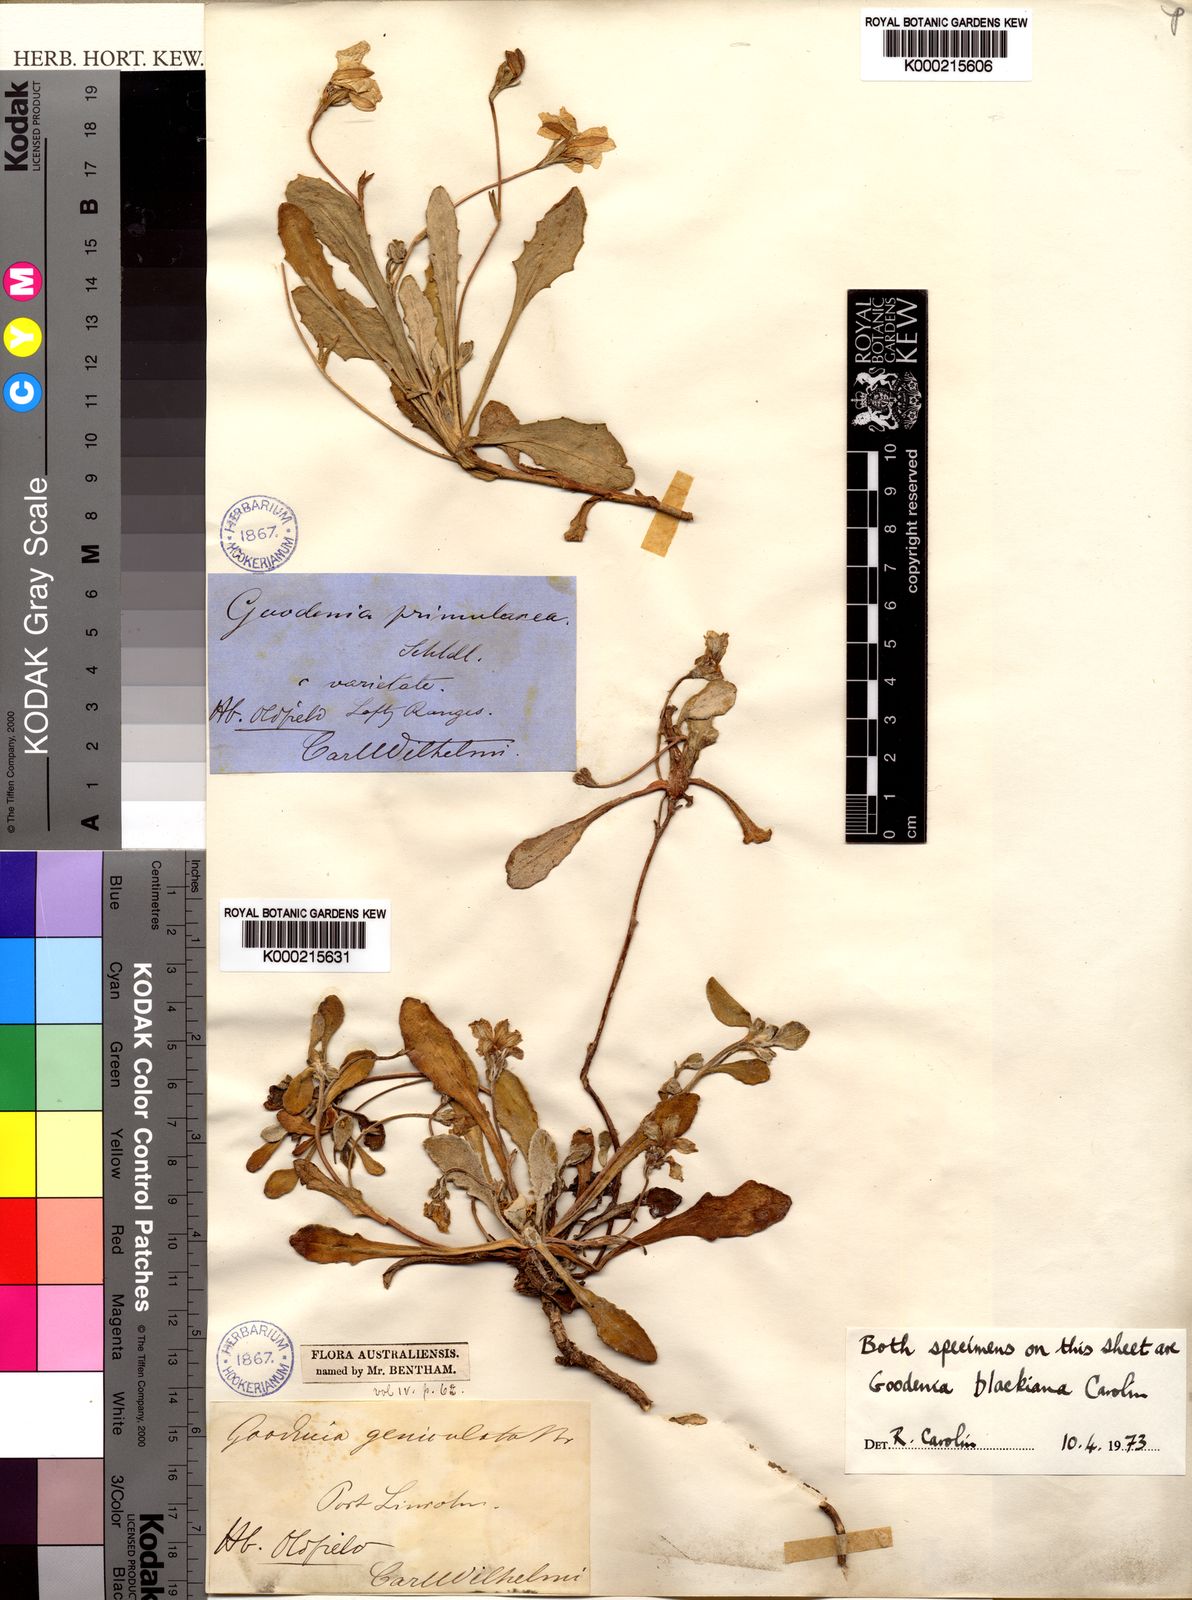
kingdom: Plantae
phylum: Tracheophyta
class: Magnoliopsida
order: Asterales
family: Goodeniaceae
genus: Goodenia
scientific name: Goodenia blackiana
